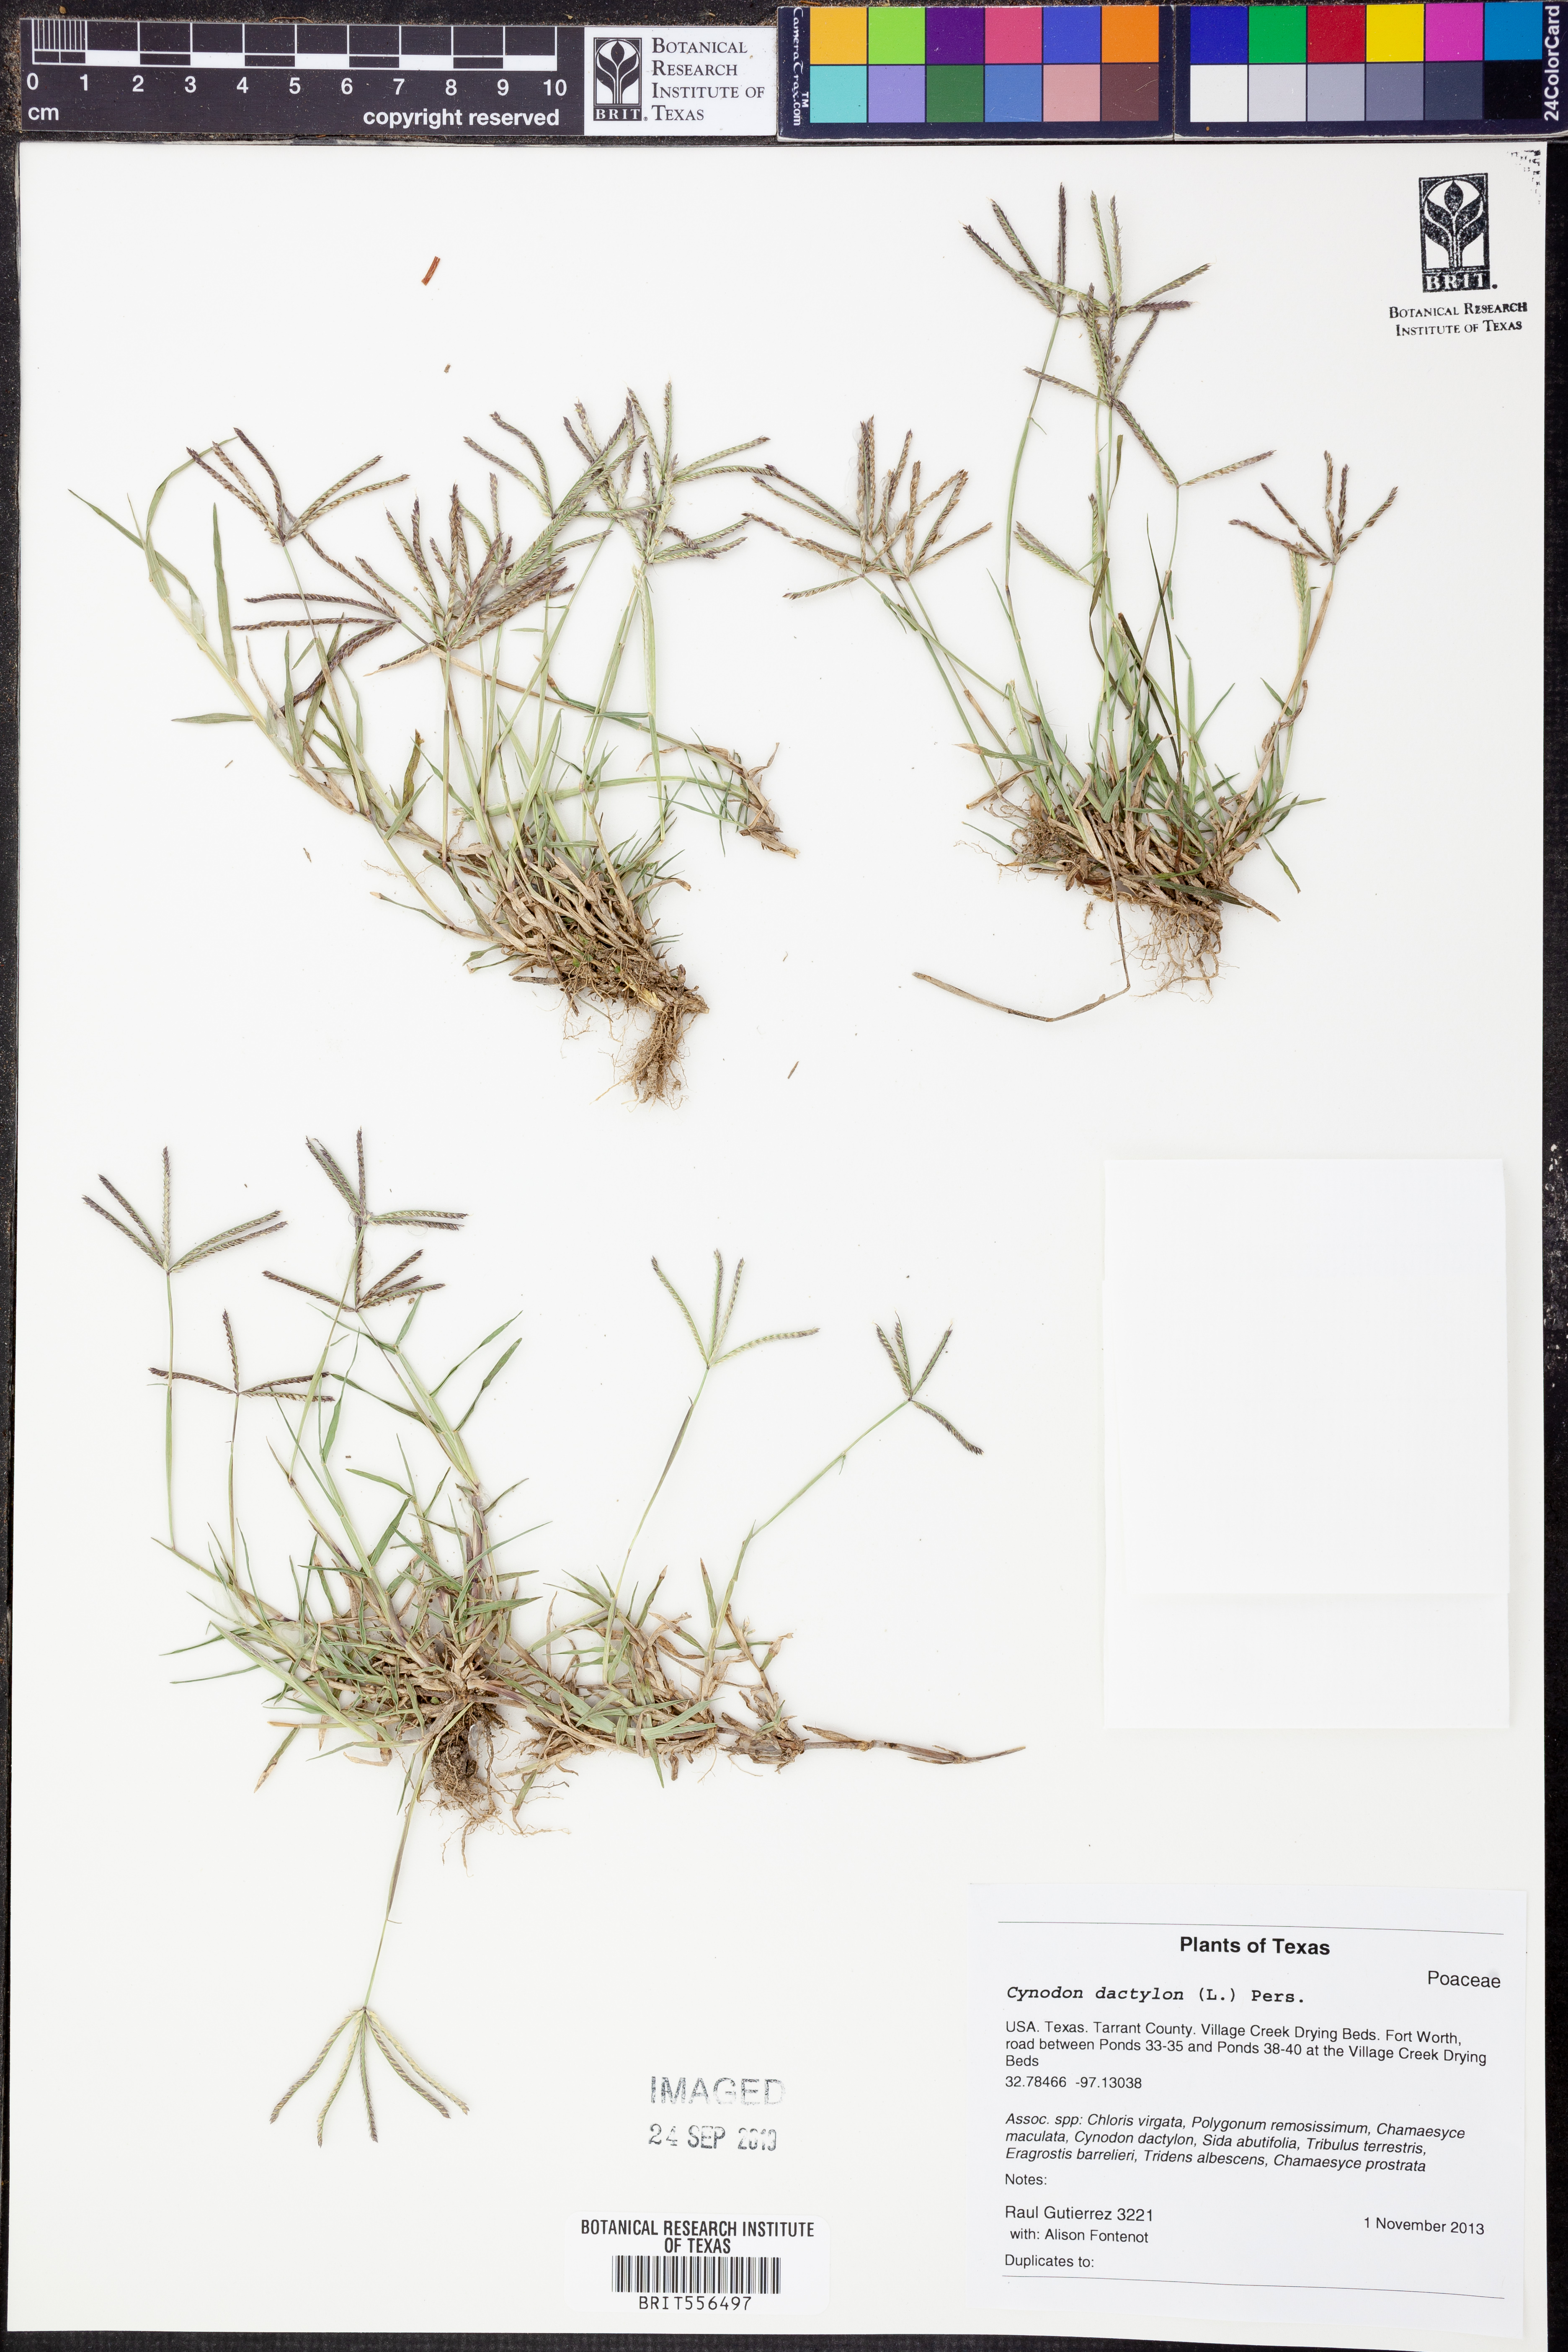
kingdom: Plantae
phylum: Tracheophyta
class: Liliopsida
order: Poales
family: Poaceae
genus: Cynodon
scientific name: Cynodon dactylon
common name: Bermuda grass
